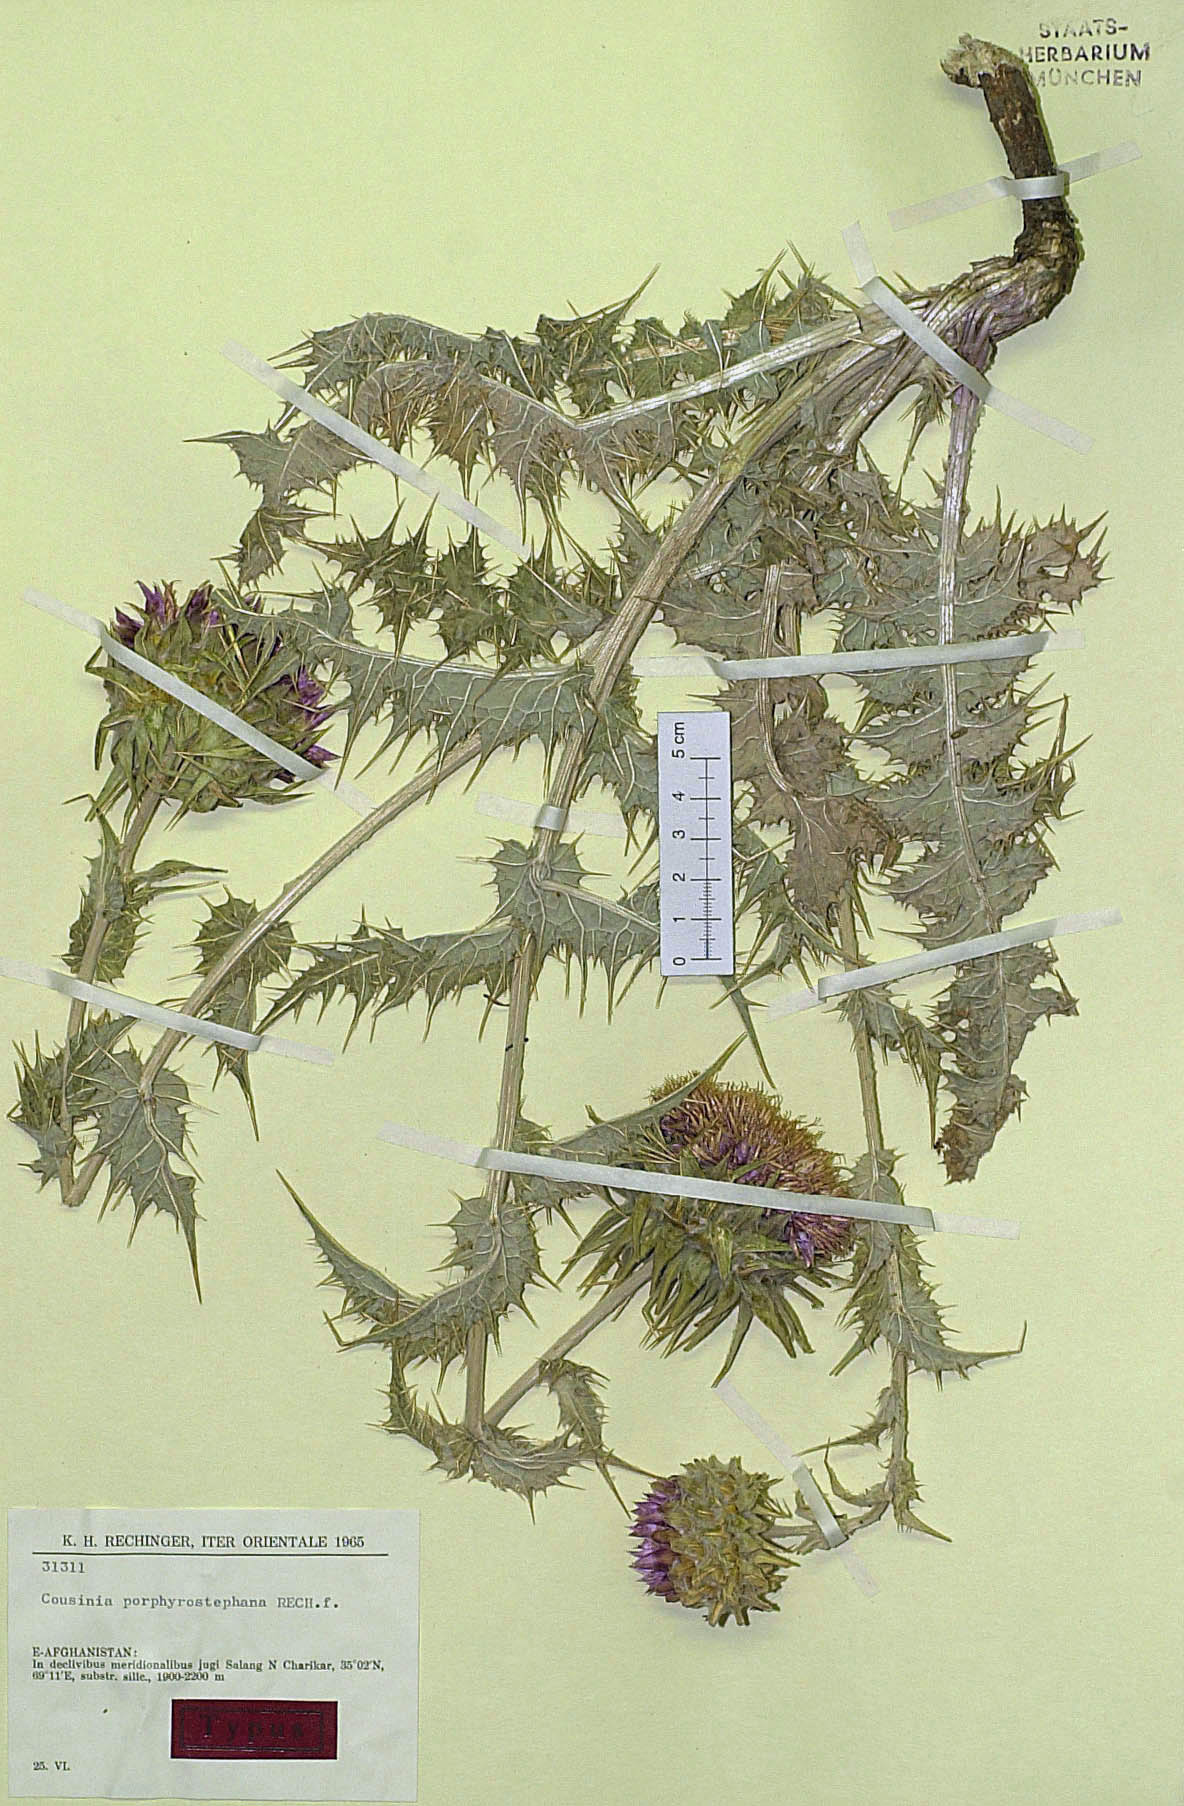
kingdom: Plantae
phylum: Tracheophyta
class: Magnoliopsida
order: Asterales
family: Asteraceae
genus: Cousinia
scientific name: Cousinia porphyrostephana
